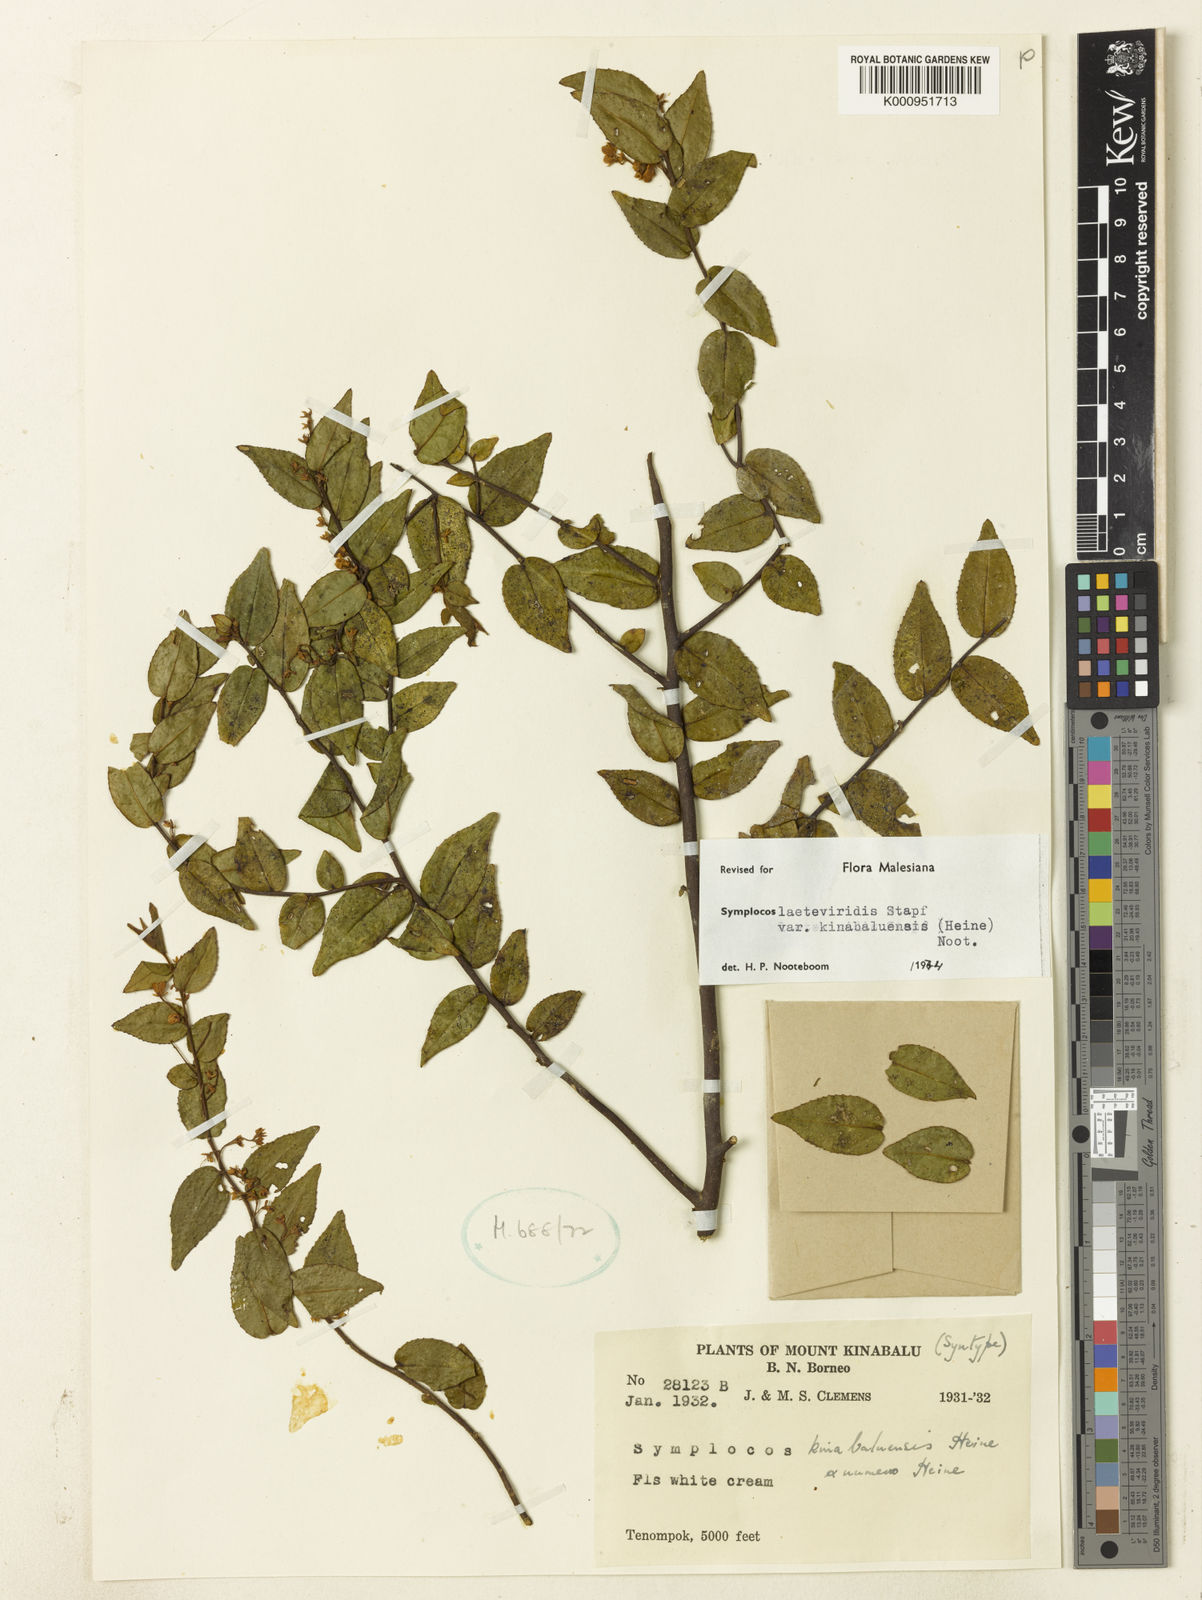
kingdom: Plantae
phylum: Tracheophyta
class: Magnoliopsida
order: Ericales
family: Symplocaceae
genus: Symplocos
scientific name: Symplocos laeteviridis
